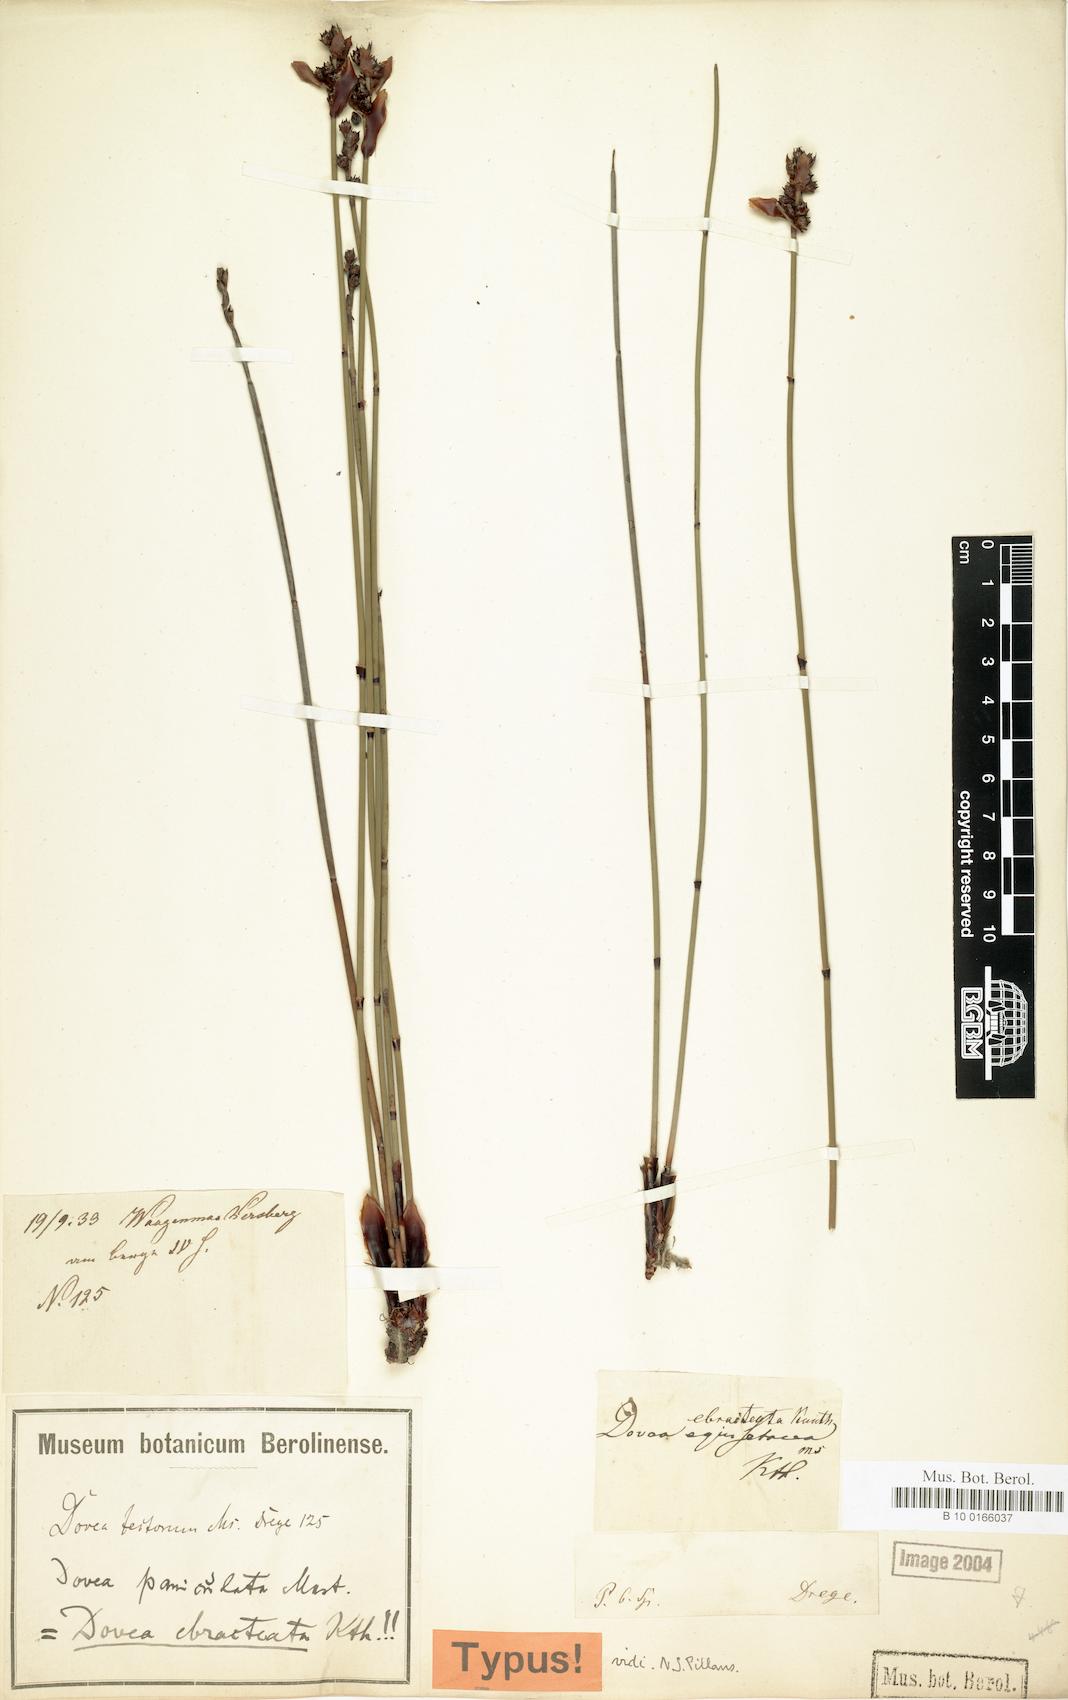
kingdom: Plantae
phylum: Tracheophyta
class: Liliopsida
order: Poales
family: Restionaceae
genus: Elegia
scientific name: Elegia ebracteata
